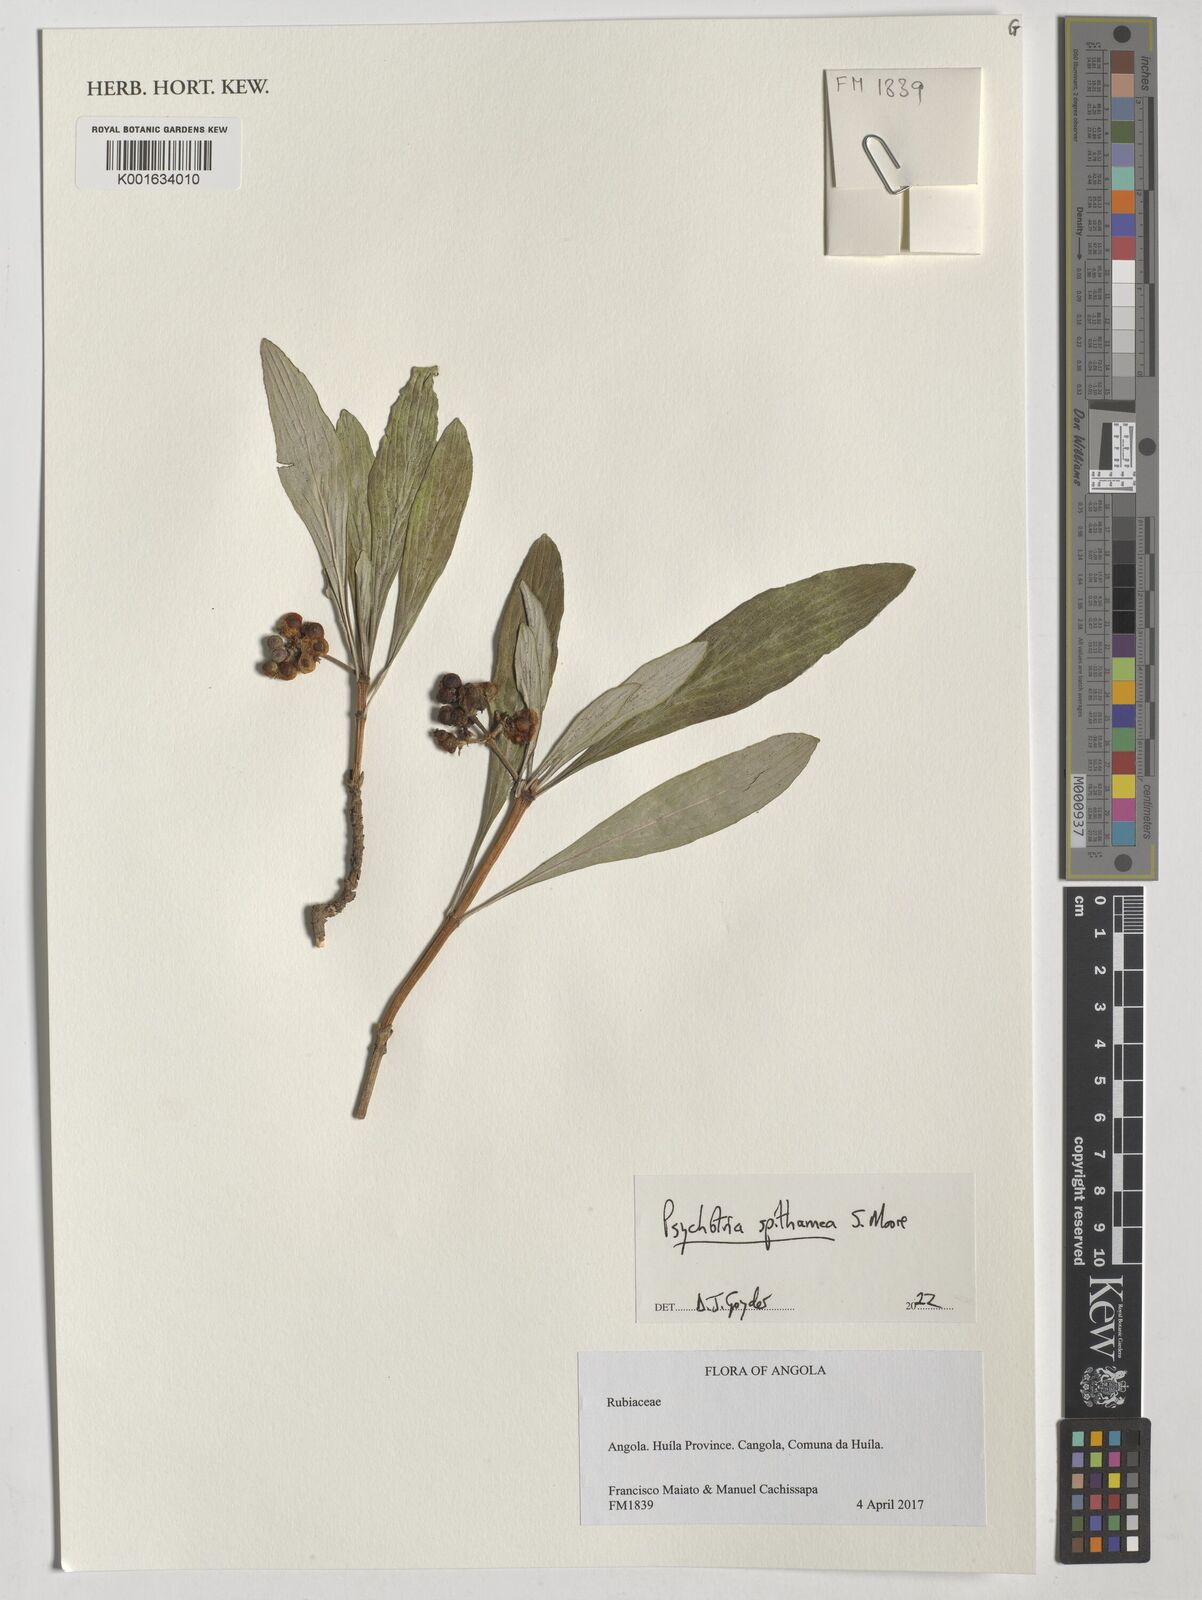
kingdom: Plantae
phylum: Tracheophyta
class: Magnoliopsida
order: Gentianales
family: Rubiaceae
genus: Psychotria
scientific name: Psychotria spithamea
